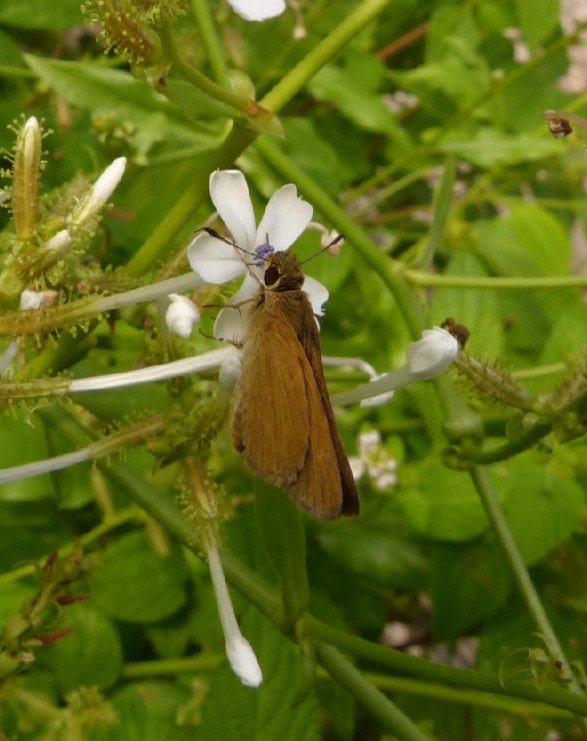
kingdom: Animalia
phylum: Arthropoda
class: Insecta
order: Lepidoptera
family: Hesperiidae
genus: Nastra
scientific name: Nastra julia
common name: Julia's Skipper
